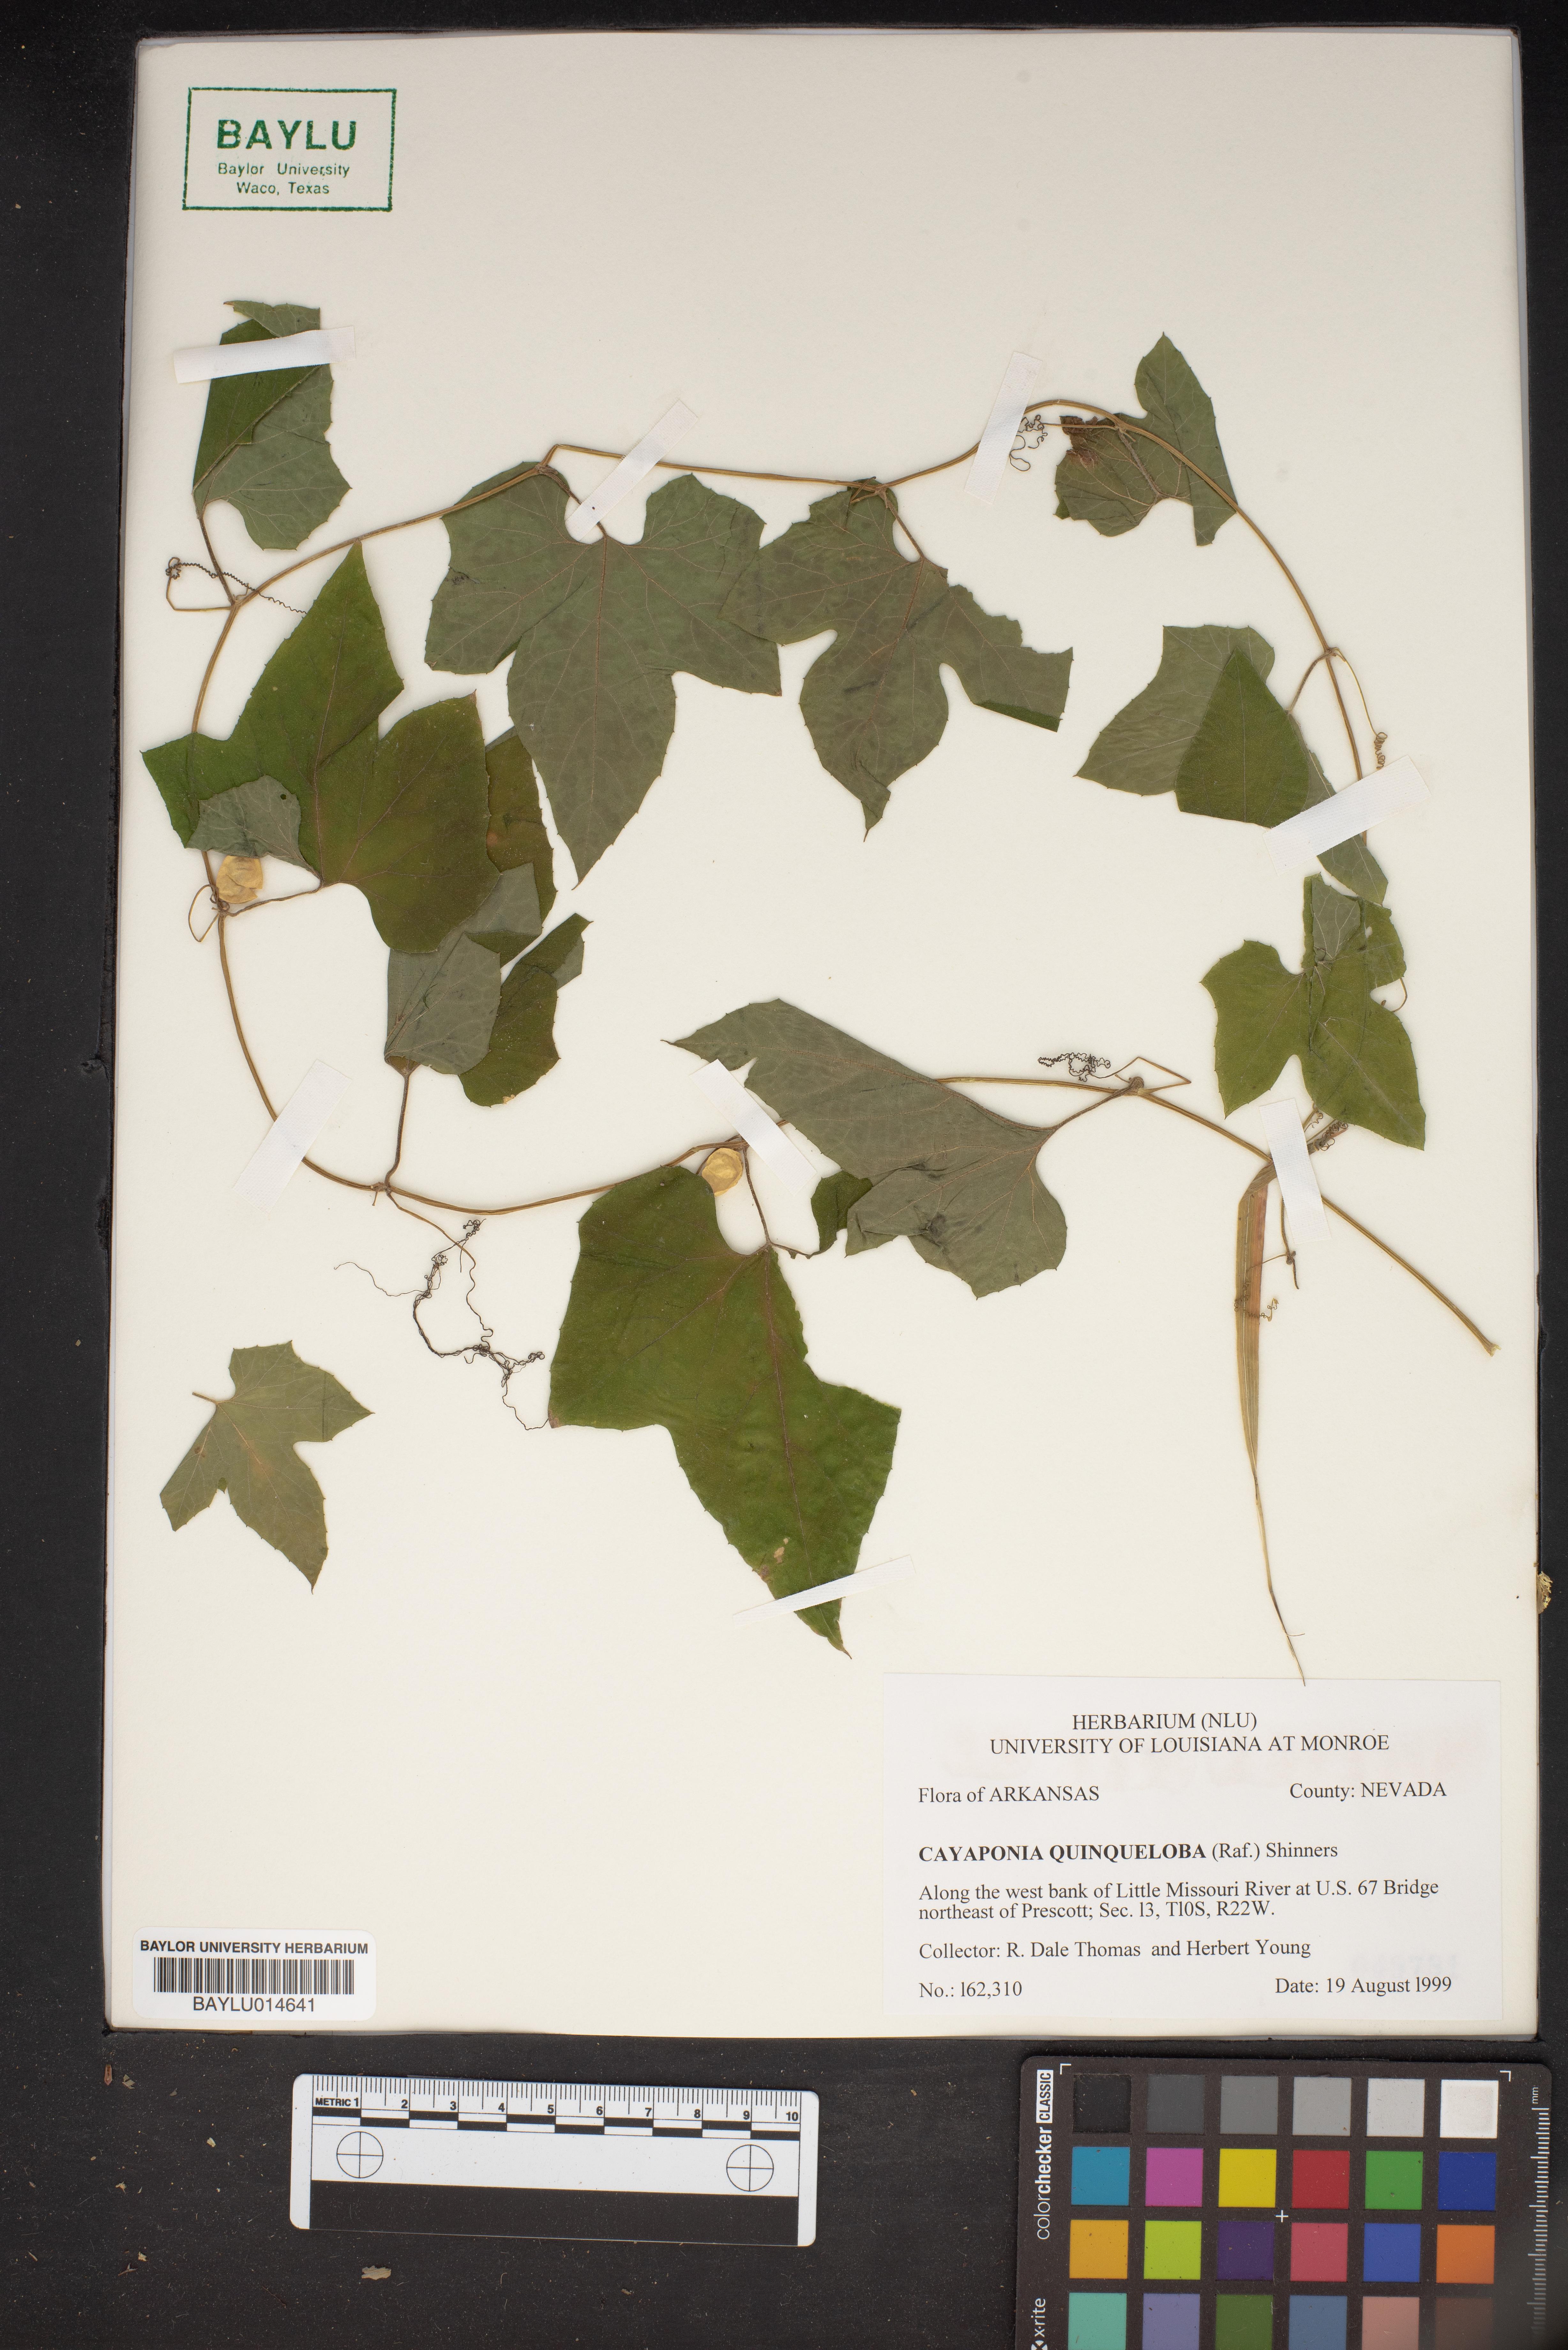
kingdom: Plantae
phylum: Tracheophyta
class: Magnoliopsida
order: Cucurbitales
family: Cucurbitaceae
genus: Cayaponia
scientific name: Cayaponia quinqueloba
